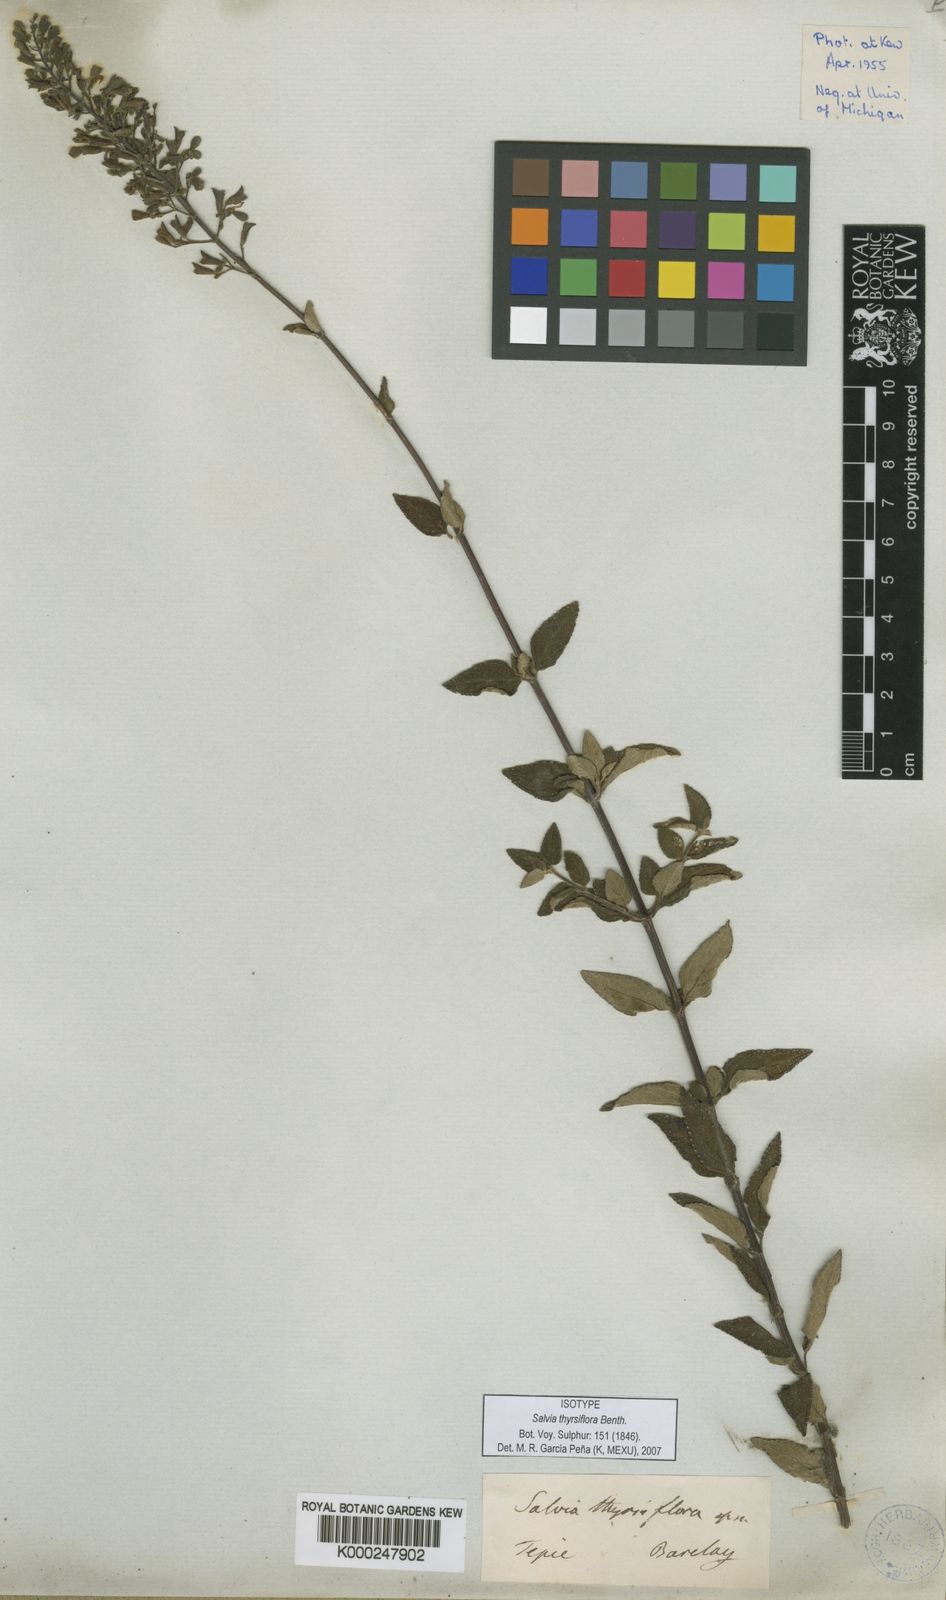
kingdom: Plantae
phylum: Tracheophyta
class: Magnoliopsida
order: Lamiales
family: Lamiaceae
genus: Salvia
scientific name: Salvia thyrsiflora
